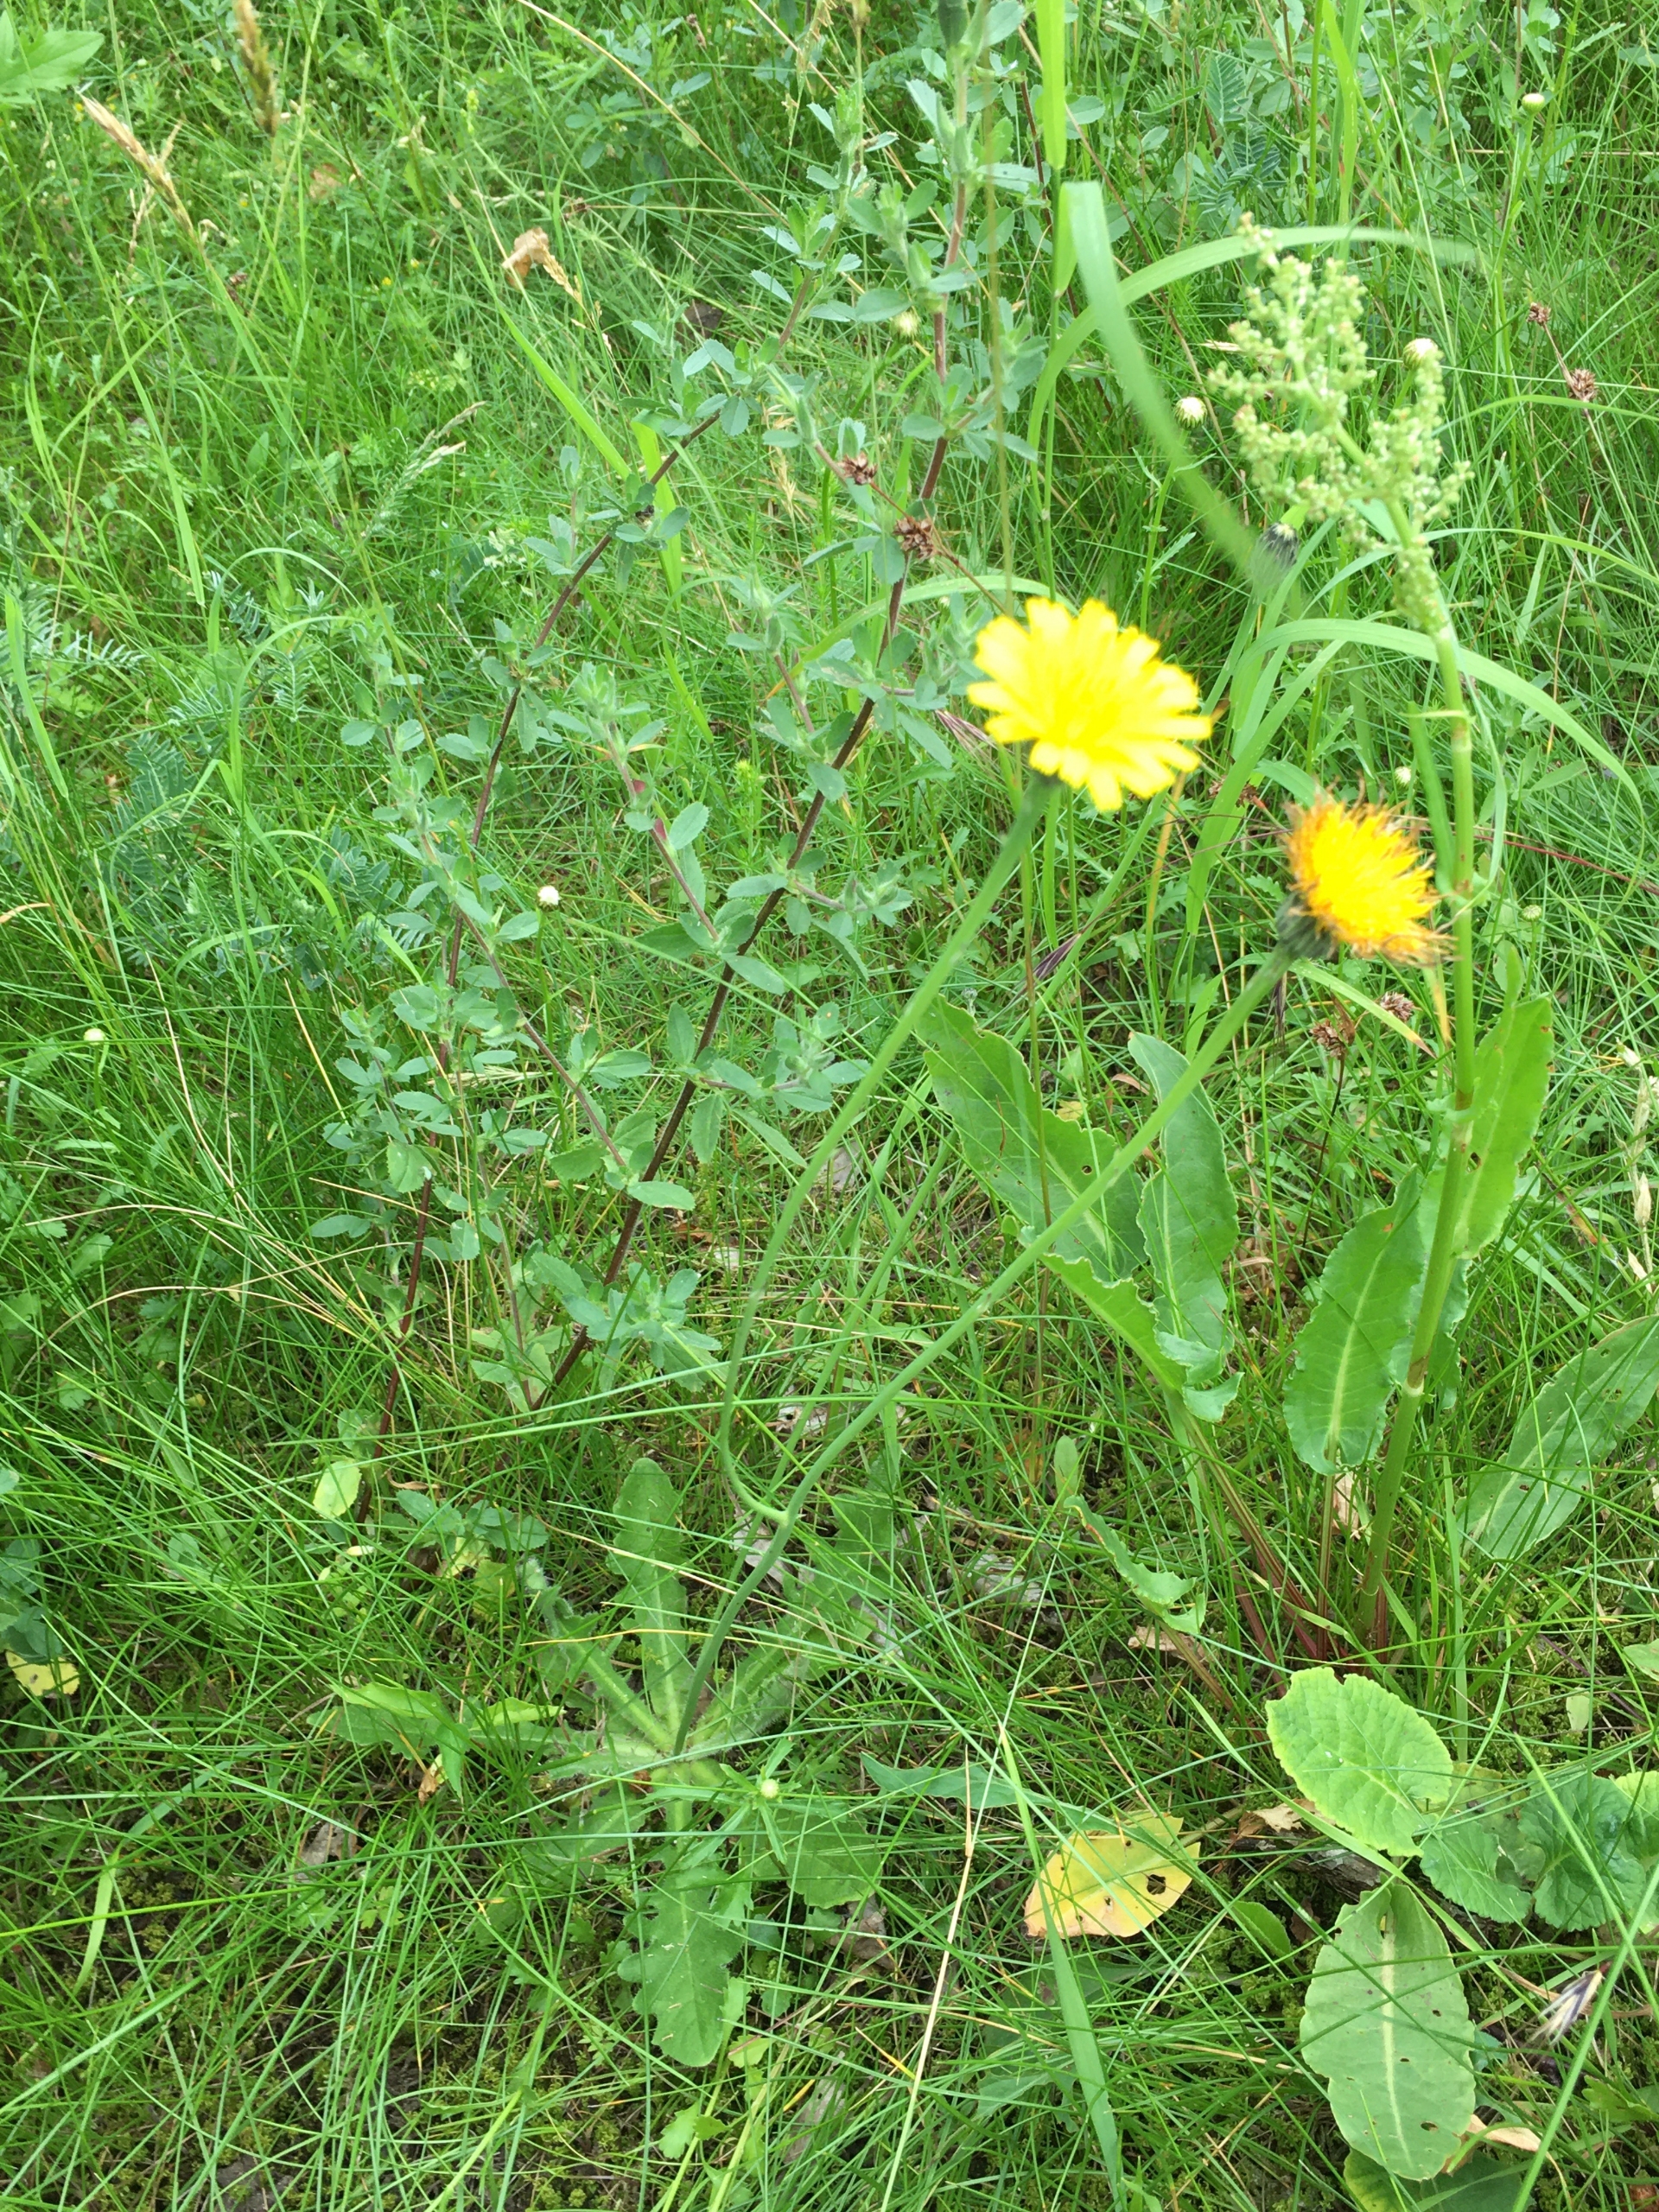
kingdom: Plantae
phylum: Tracheophyta
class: Magnoliopsida
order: Asterales
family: Asteraceae
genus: Hypochaeris
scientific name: Hypochaeris radicata
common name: Almindelig kongepen
